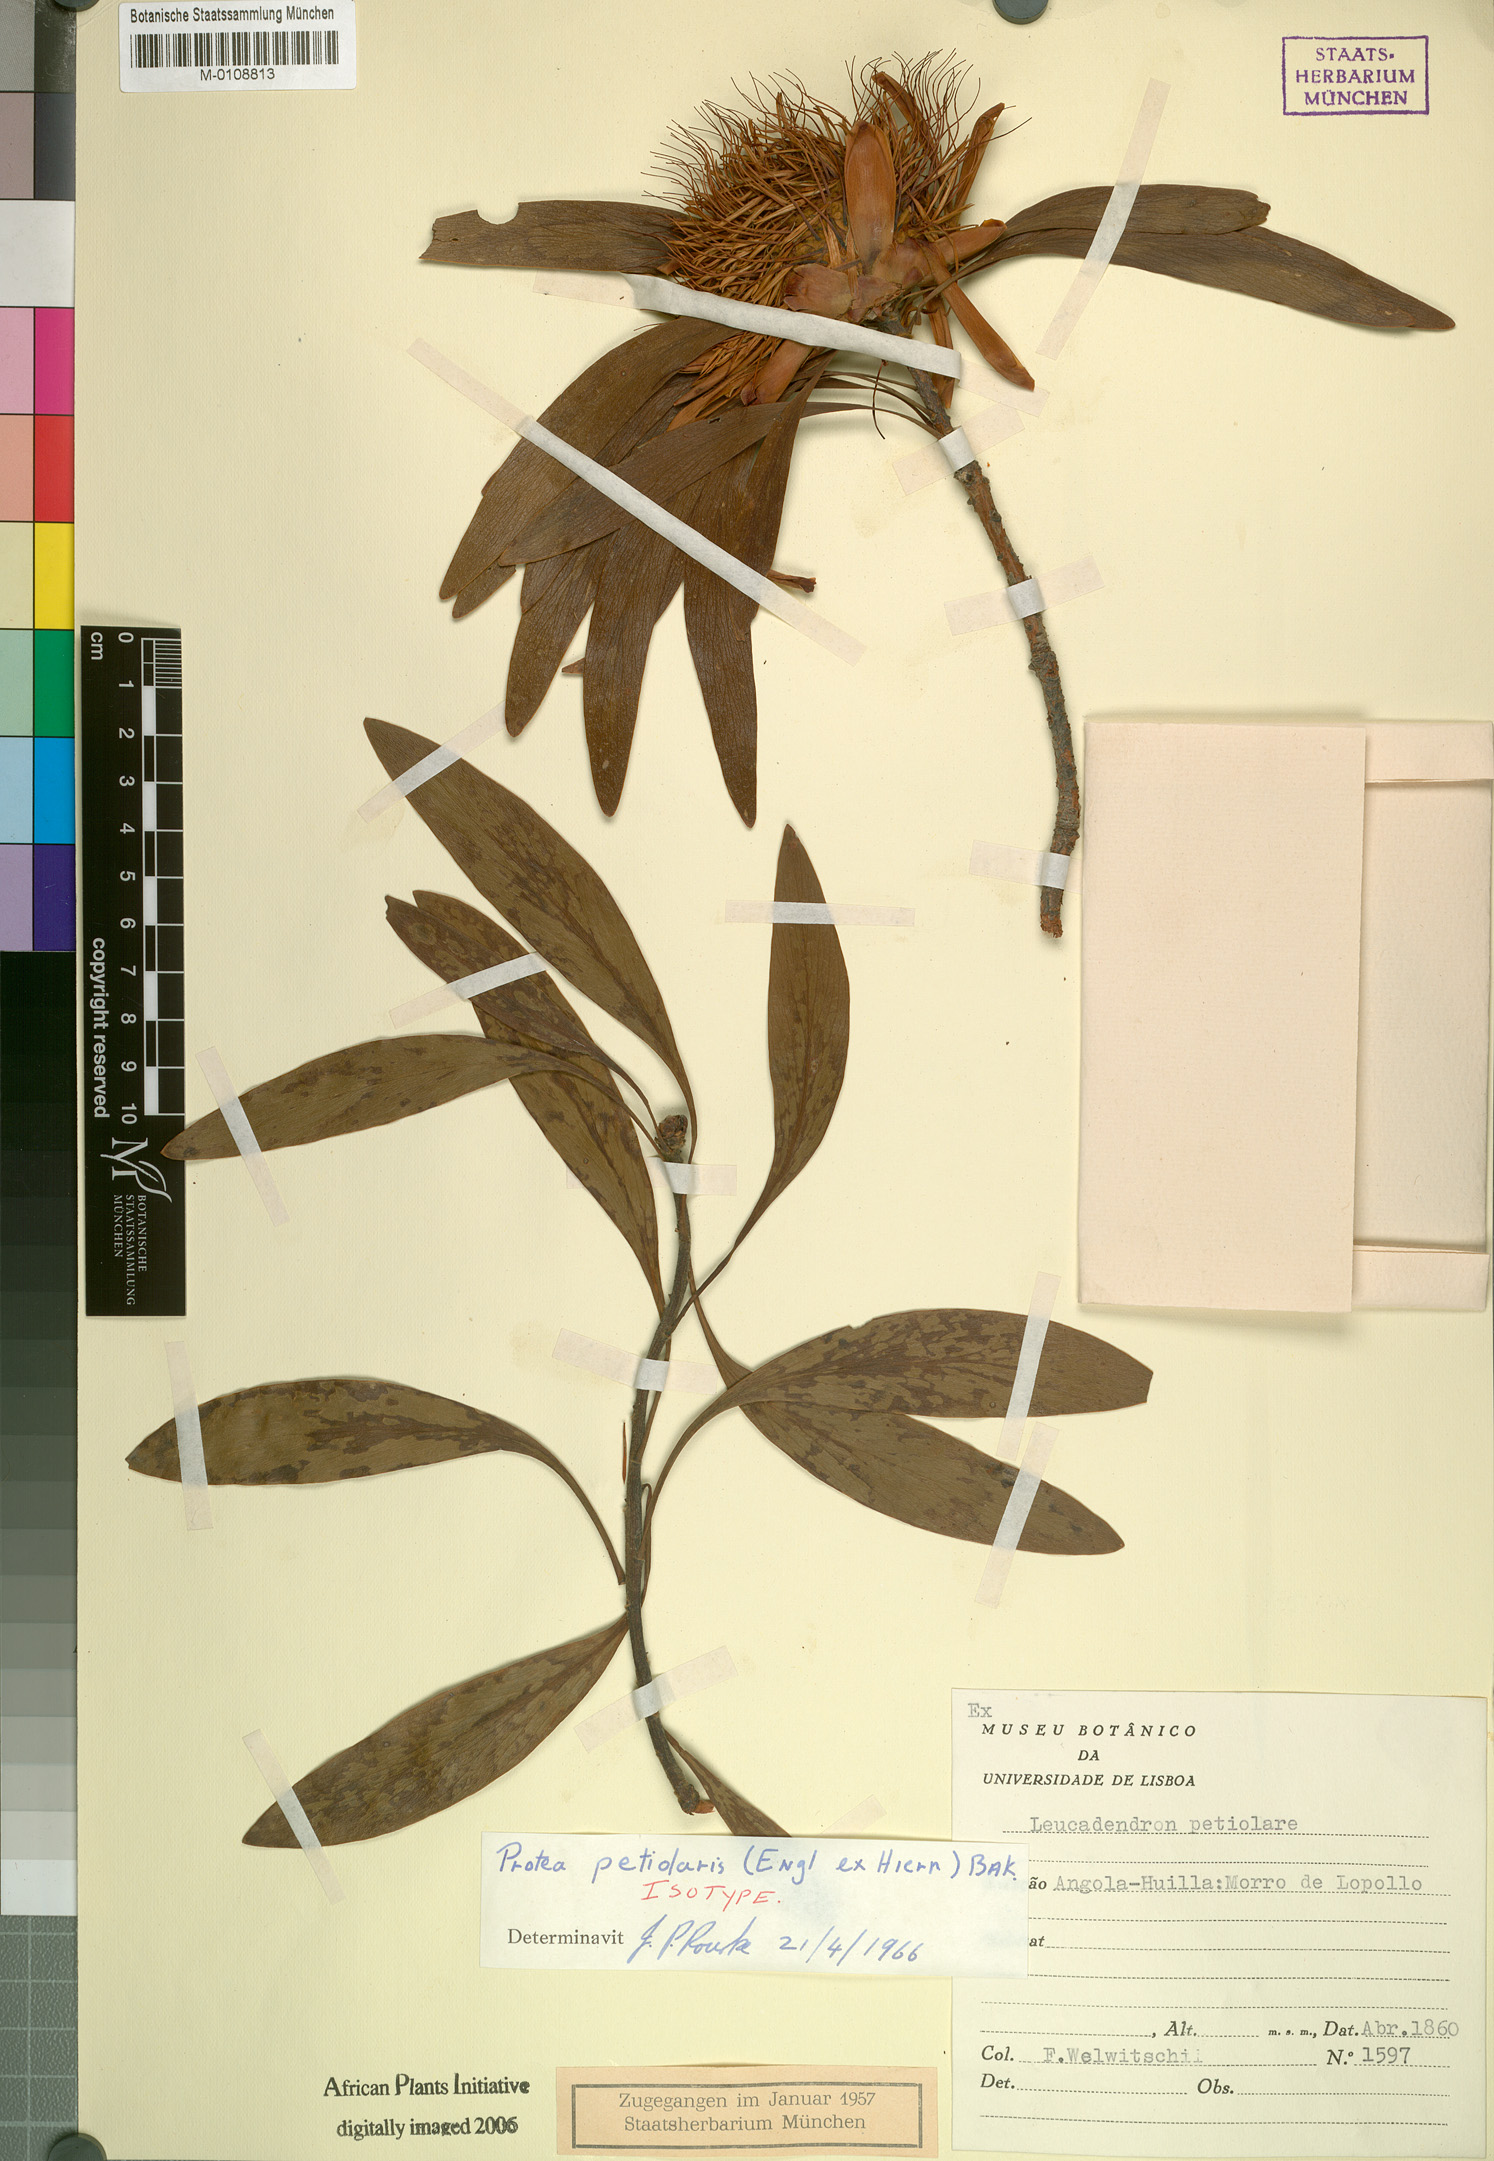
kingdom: Plantae
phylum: Tracheophyta
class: Magnoliopsida
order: Proteales
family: Proteaceae
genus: Protea
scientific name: Protea petiolaris
